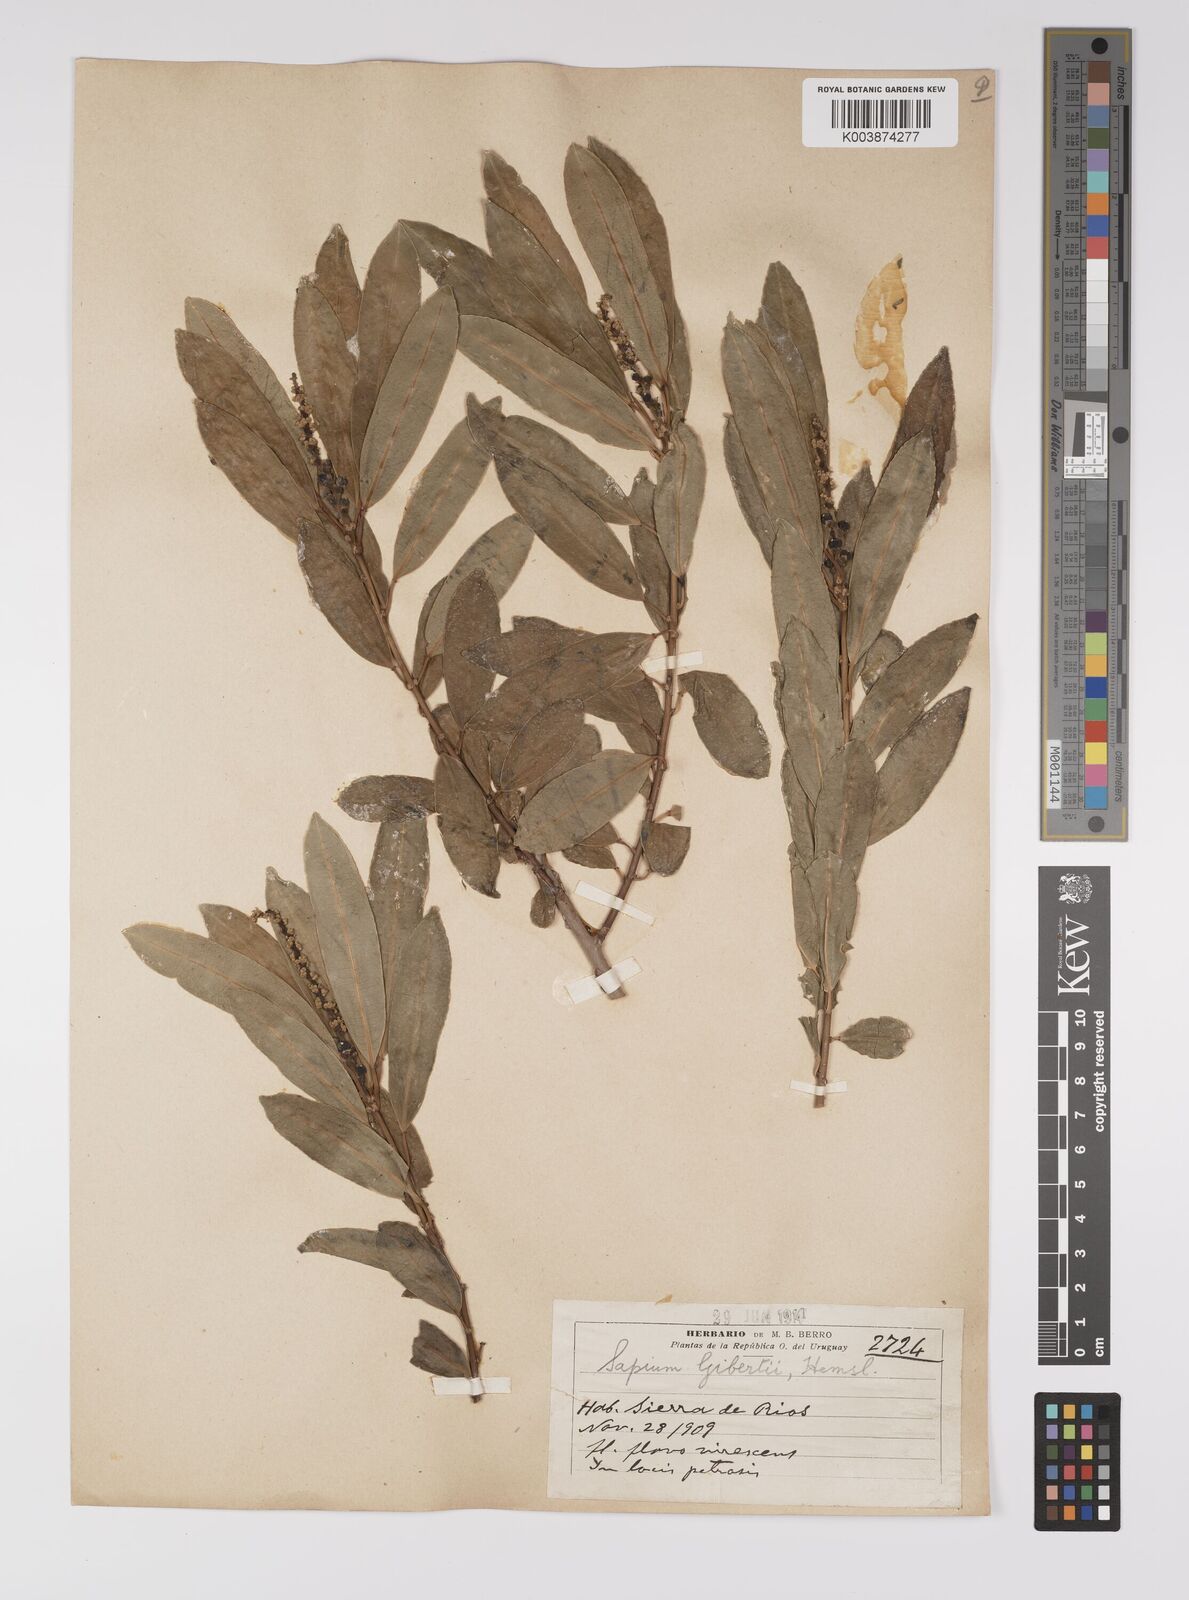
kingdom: Plantae
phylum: Tracheophyta
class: Magnoliopsida
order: Malpighiales
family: Euphorbiaceae
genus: Sapium
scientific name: Sapium haematospermum
